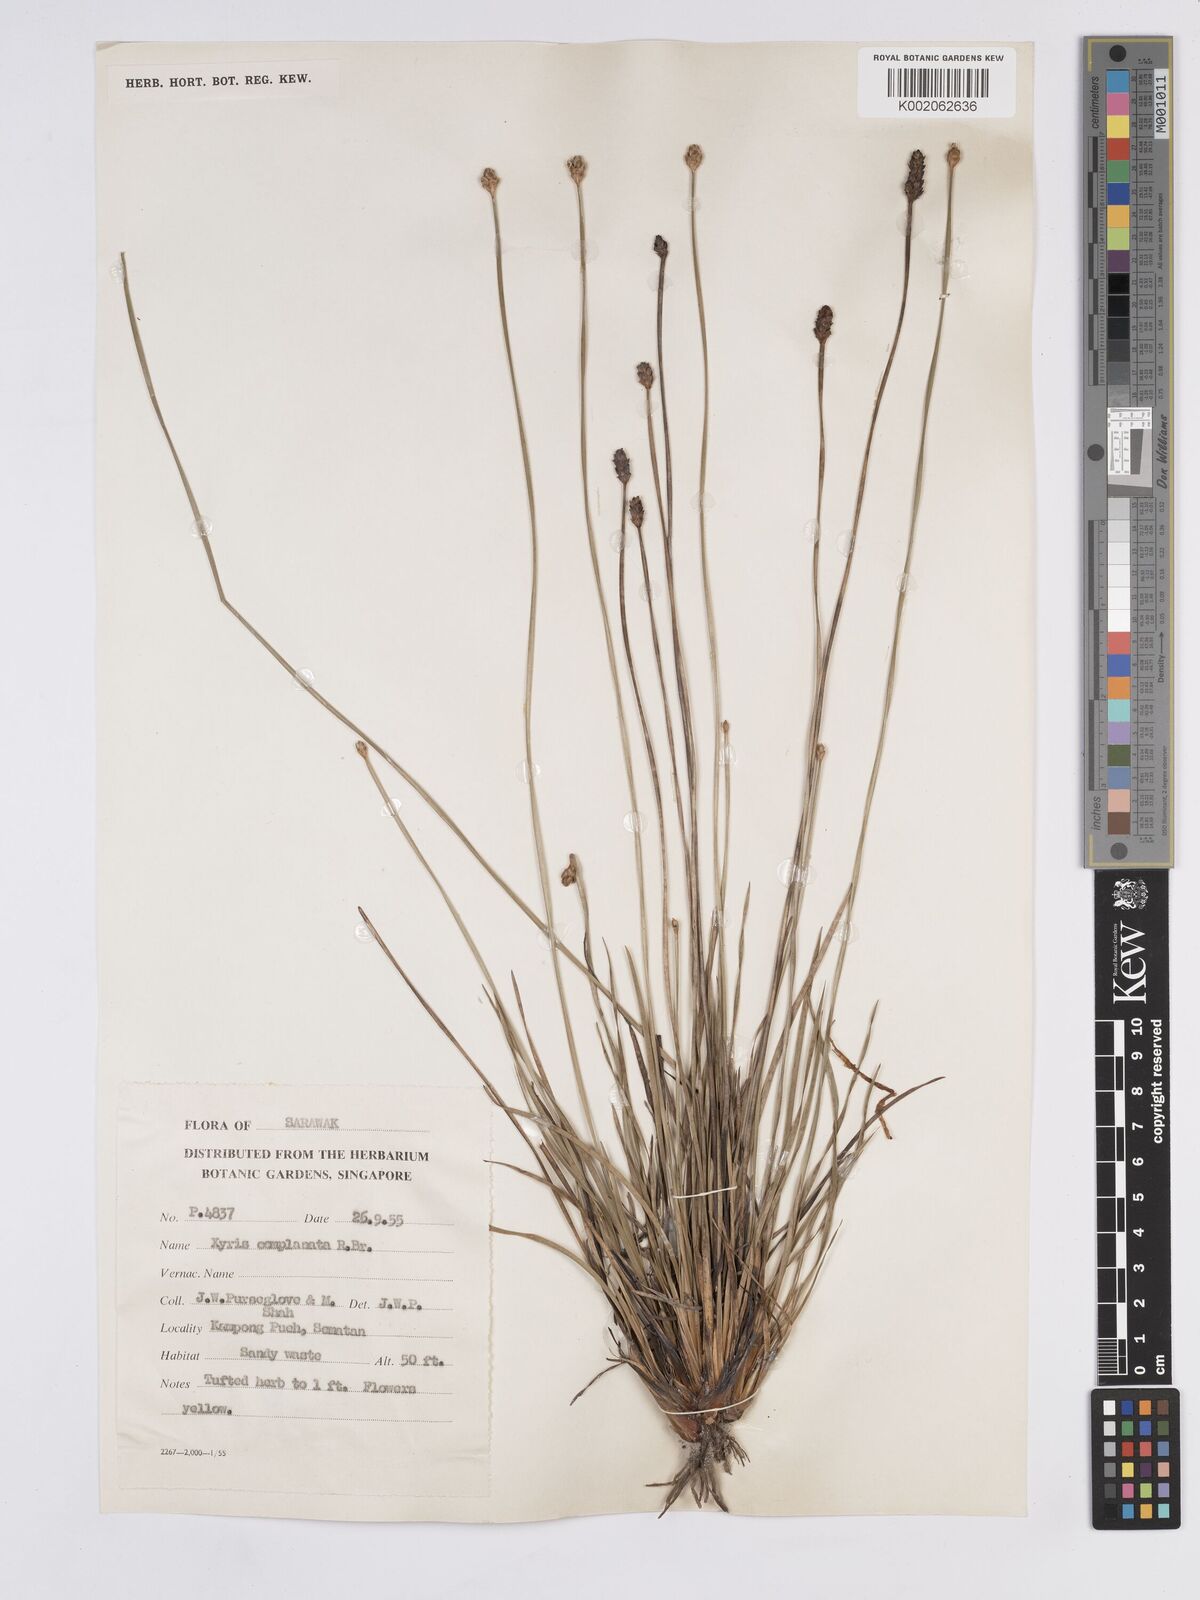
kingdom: Plantae
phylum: Tracheophyta
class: Liliopsida
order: Poales
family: Xyridaceae
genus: Xyris
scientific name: Xyris complanata
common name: Hawai'i yelloweyed grass
